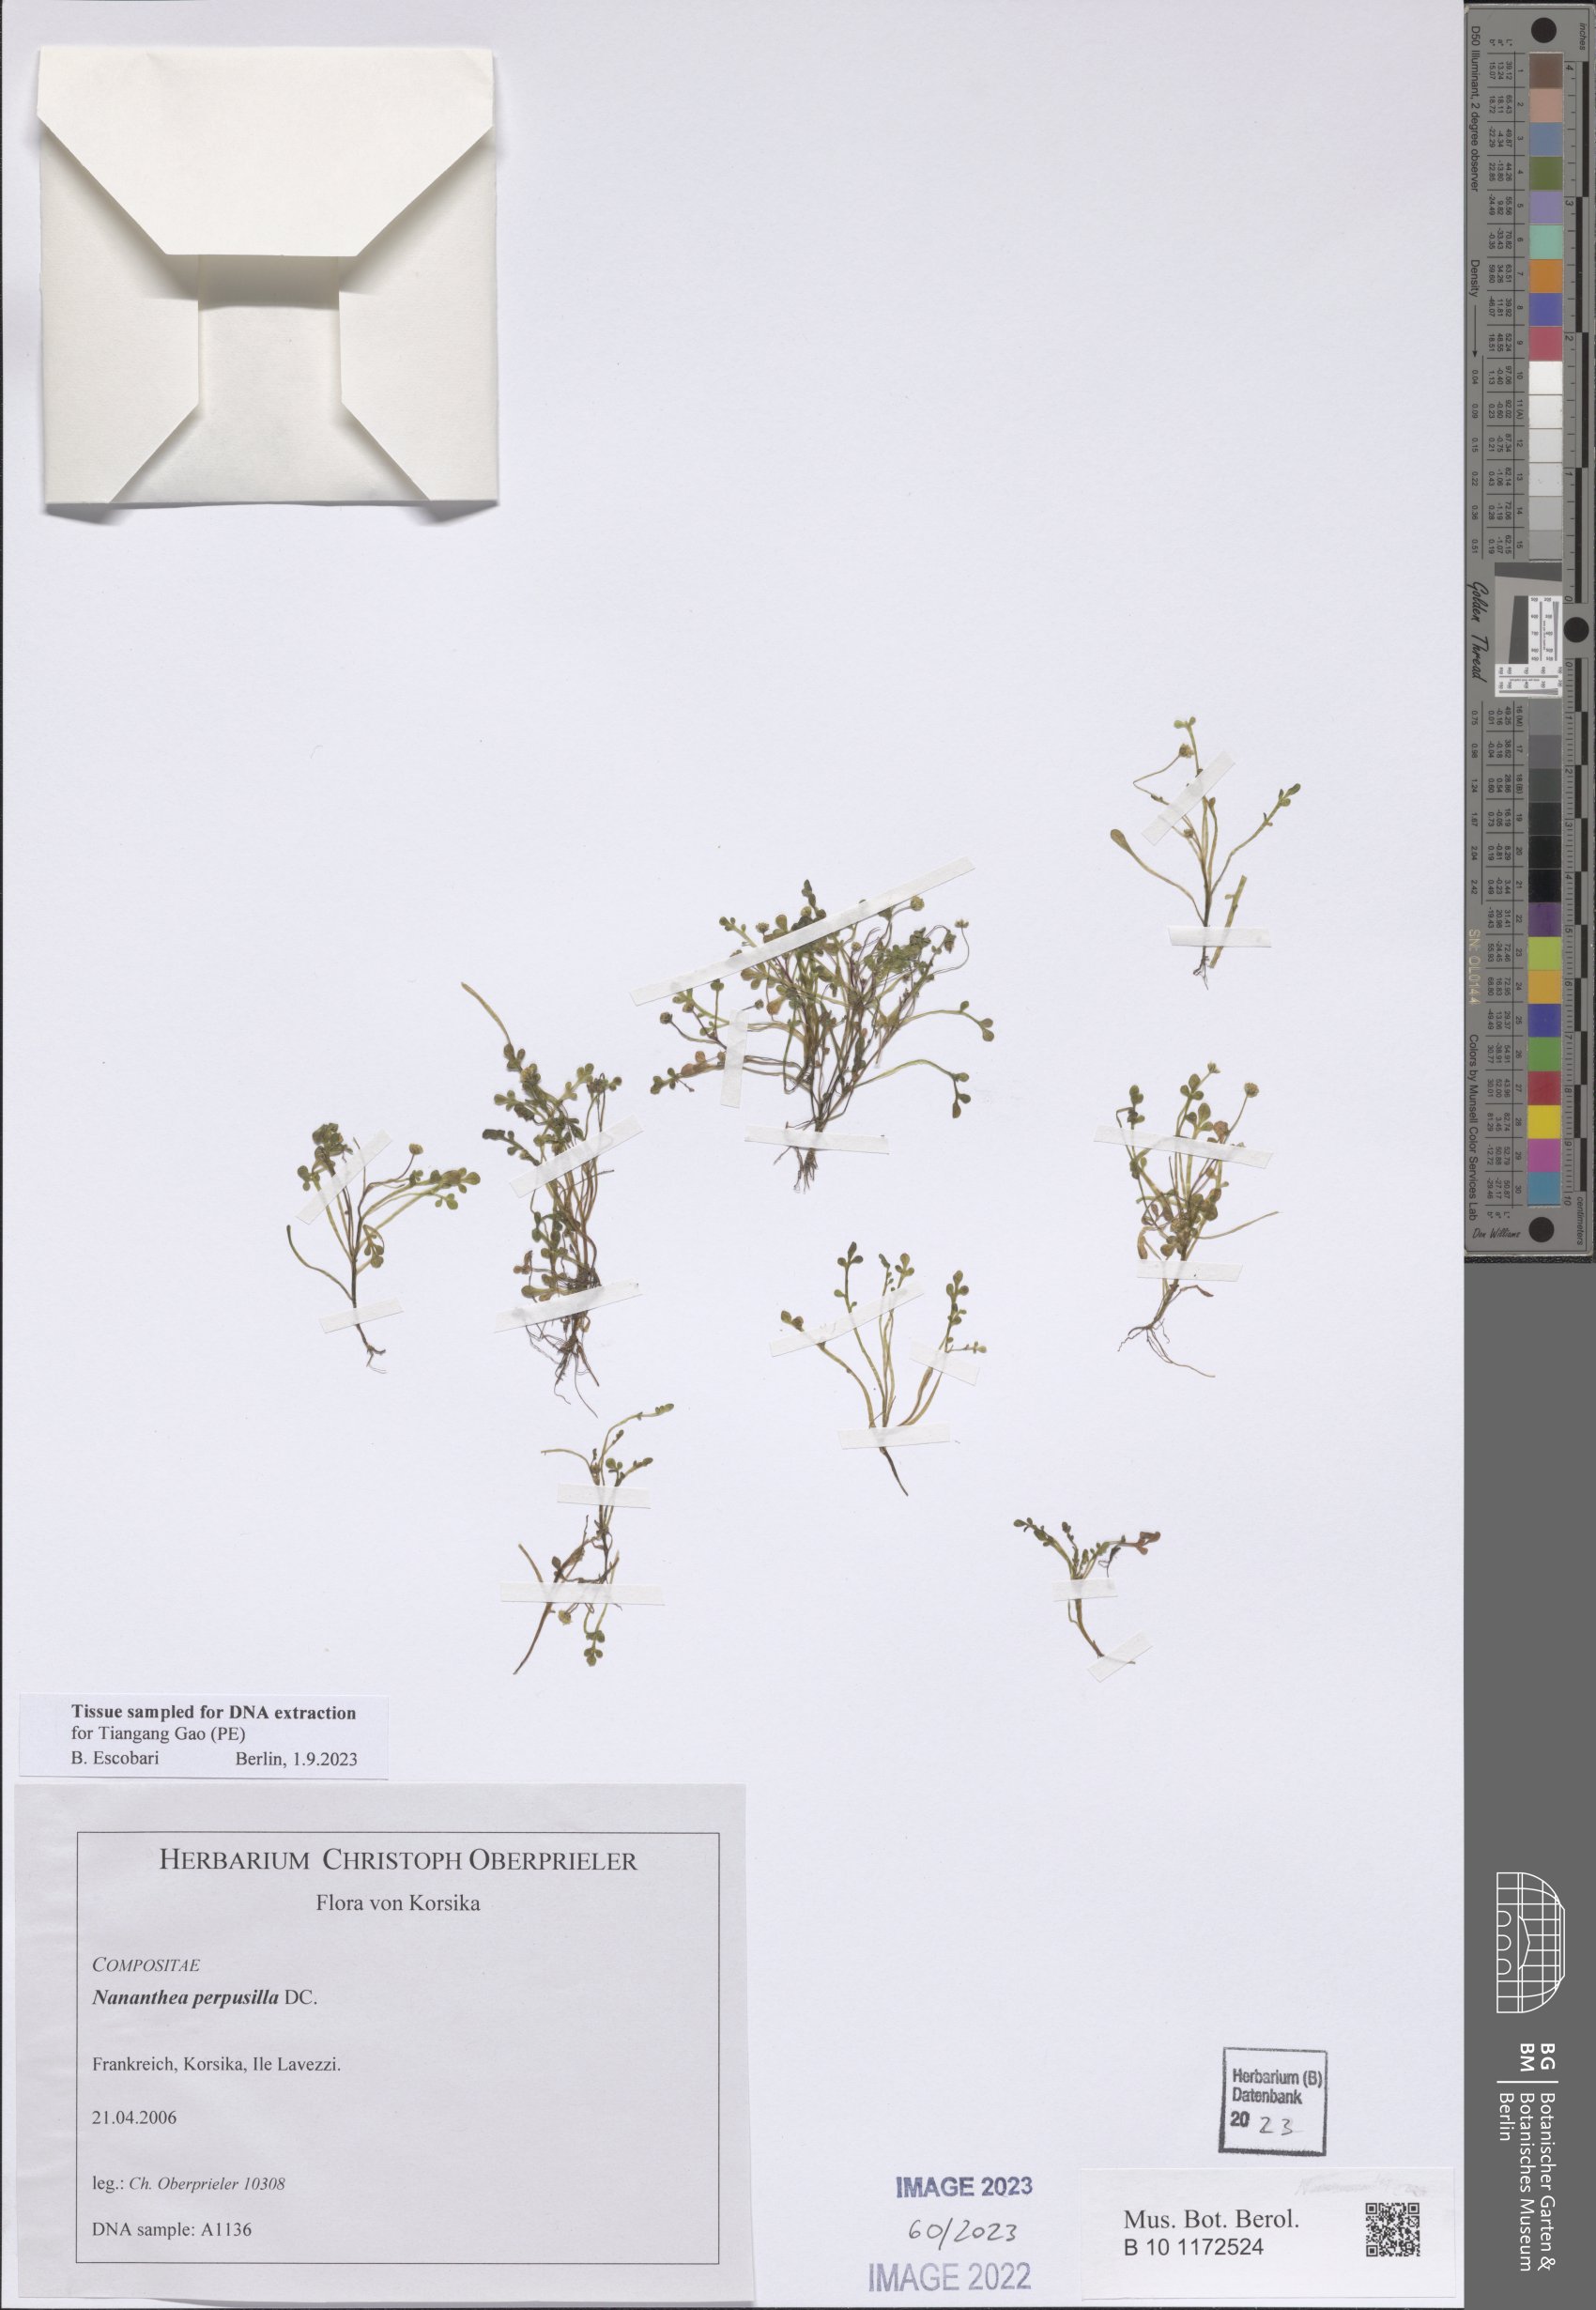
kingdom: Plantae
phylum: Tracheophyta
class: Magnoliopsida
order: Asterales
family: Asteraceae
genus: Nananthea
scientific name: Nananthea perpusilla
